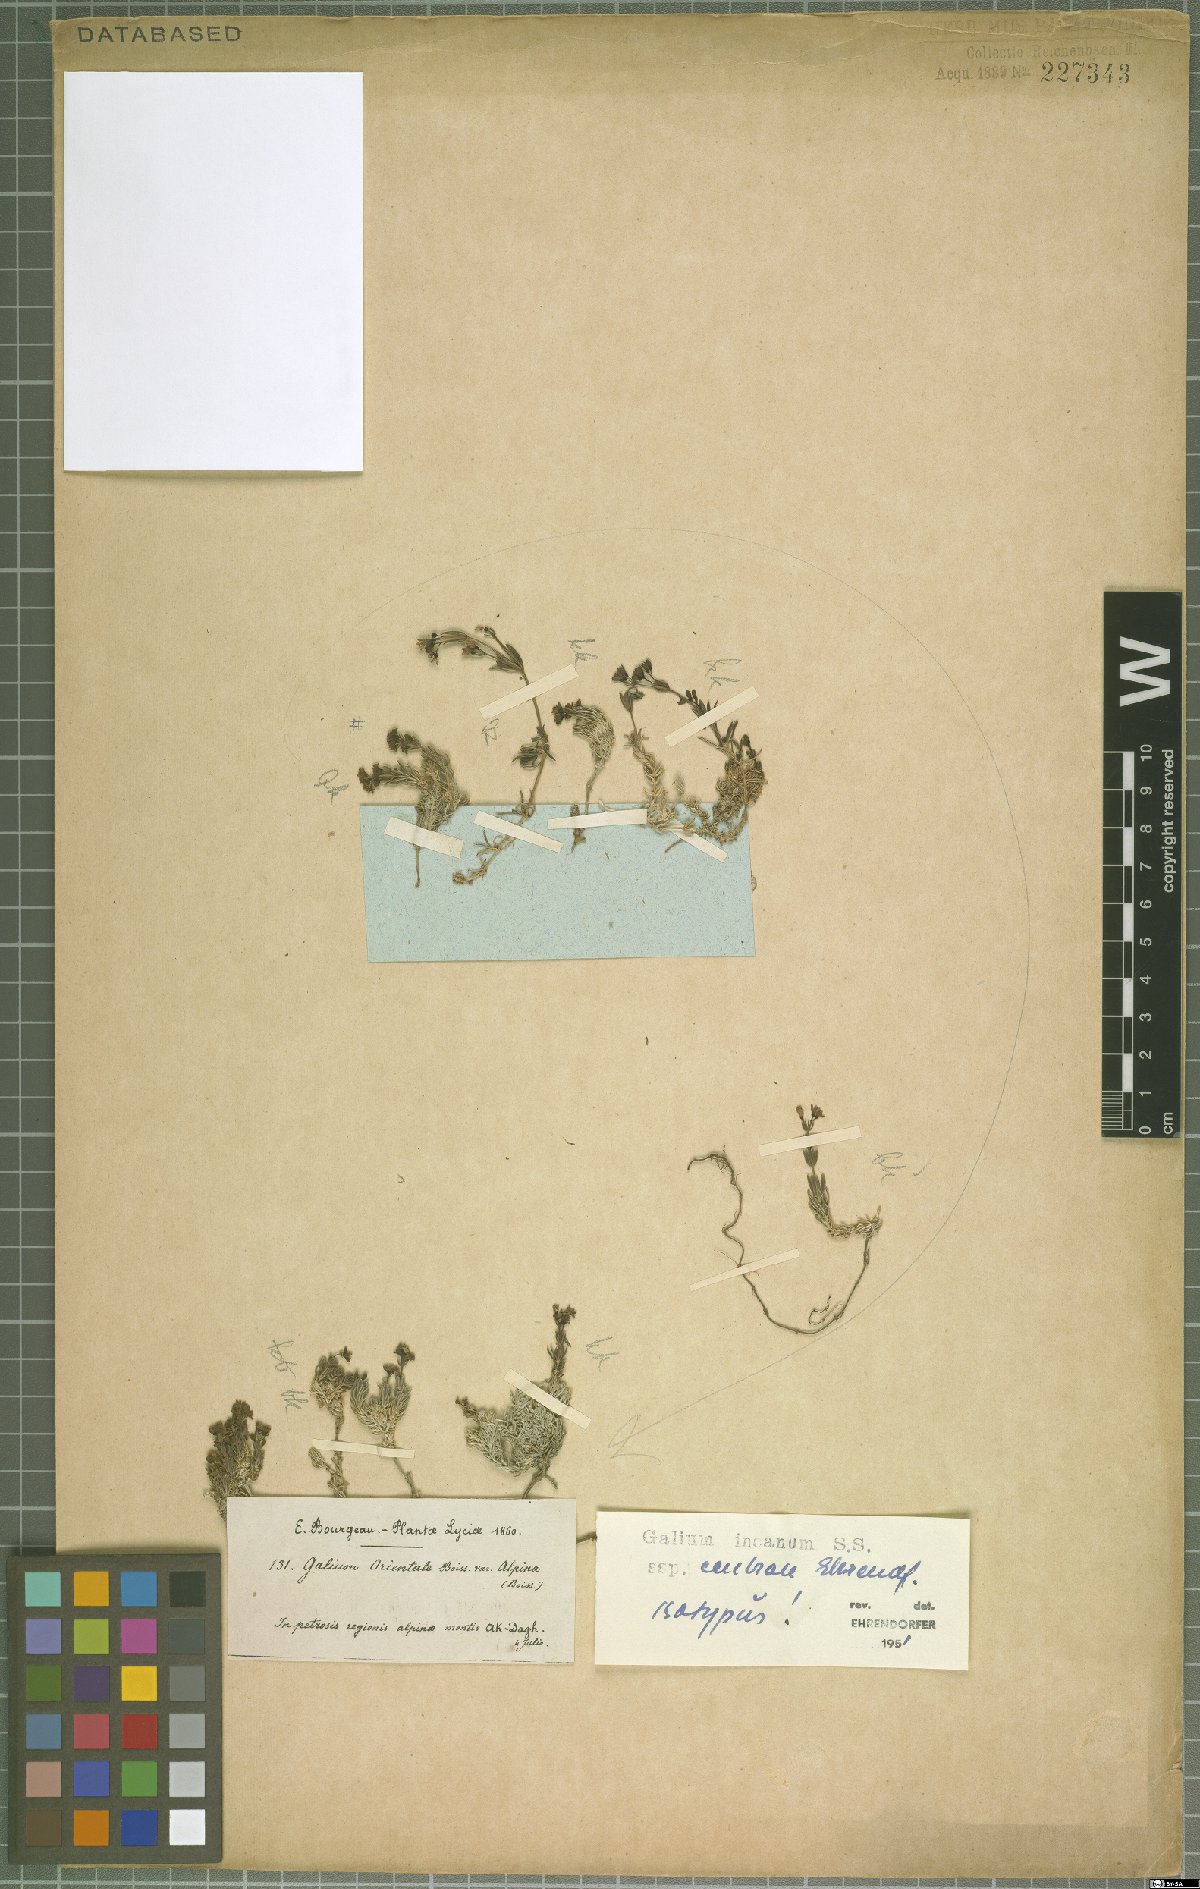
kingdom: Plantae
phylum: Tracheophyta
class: Magnoliopsida
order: Gentianales
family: Rubiaceae
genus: Galium
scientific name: Galium incanum
